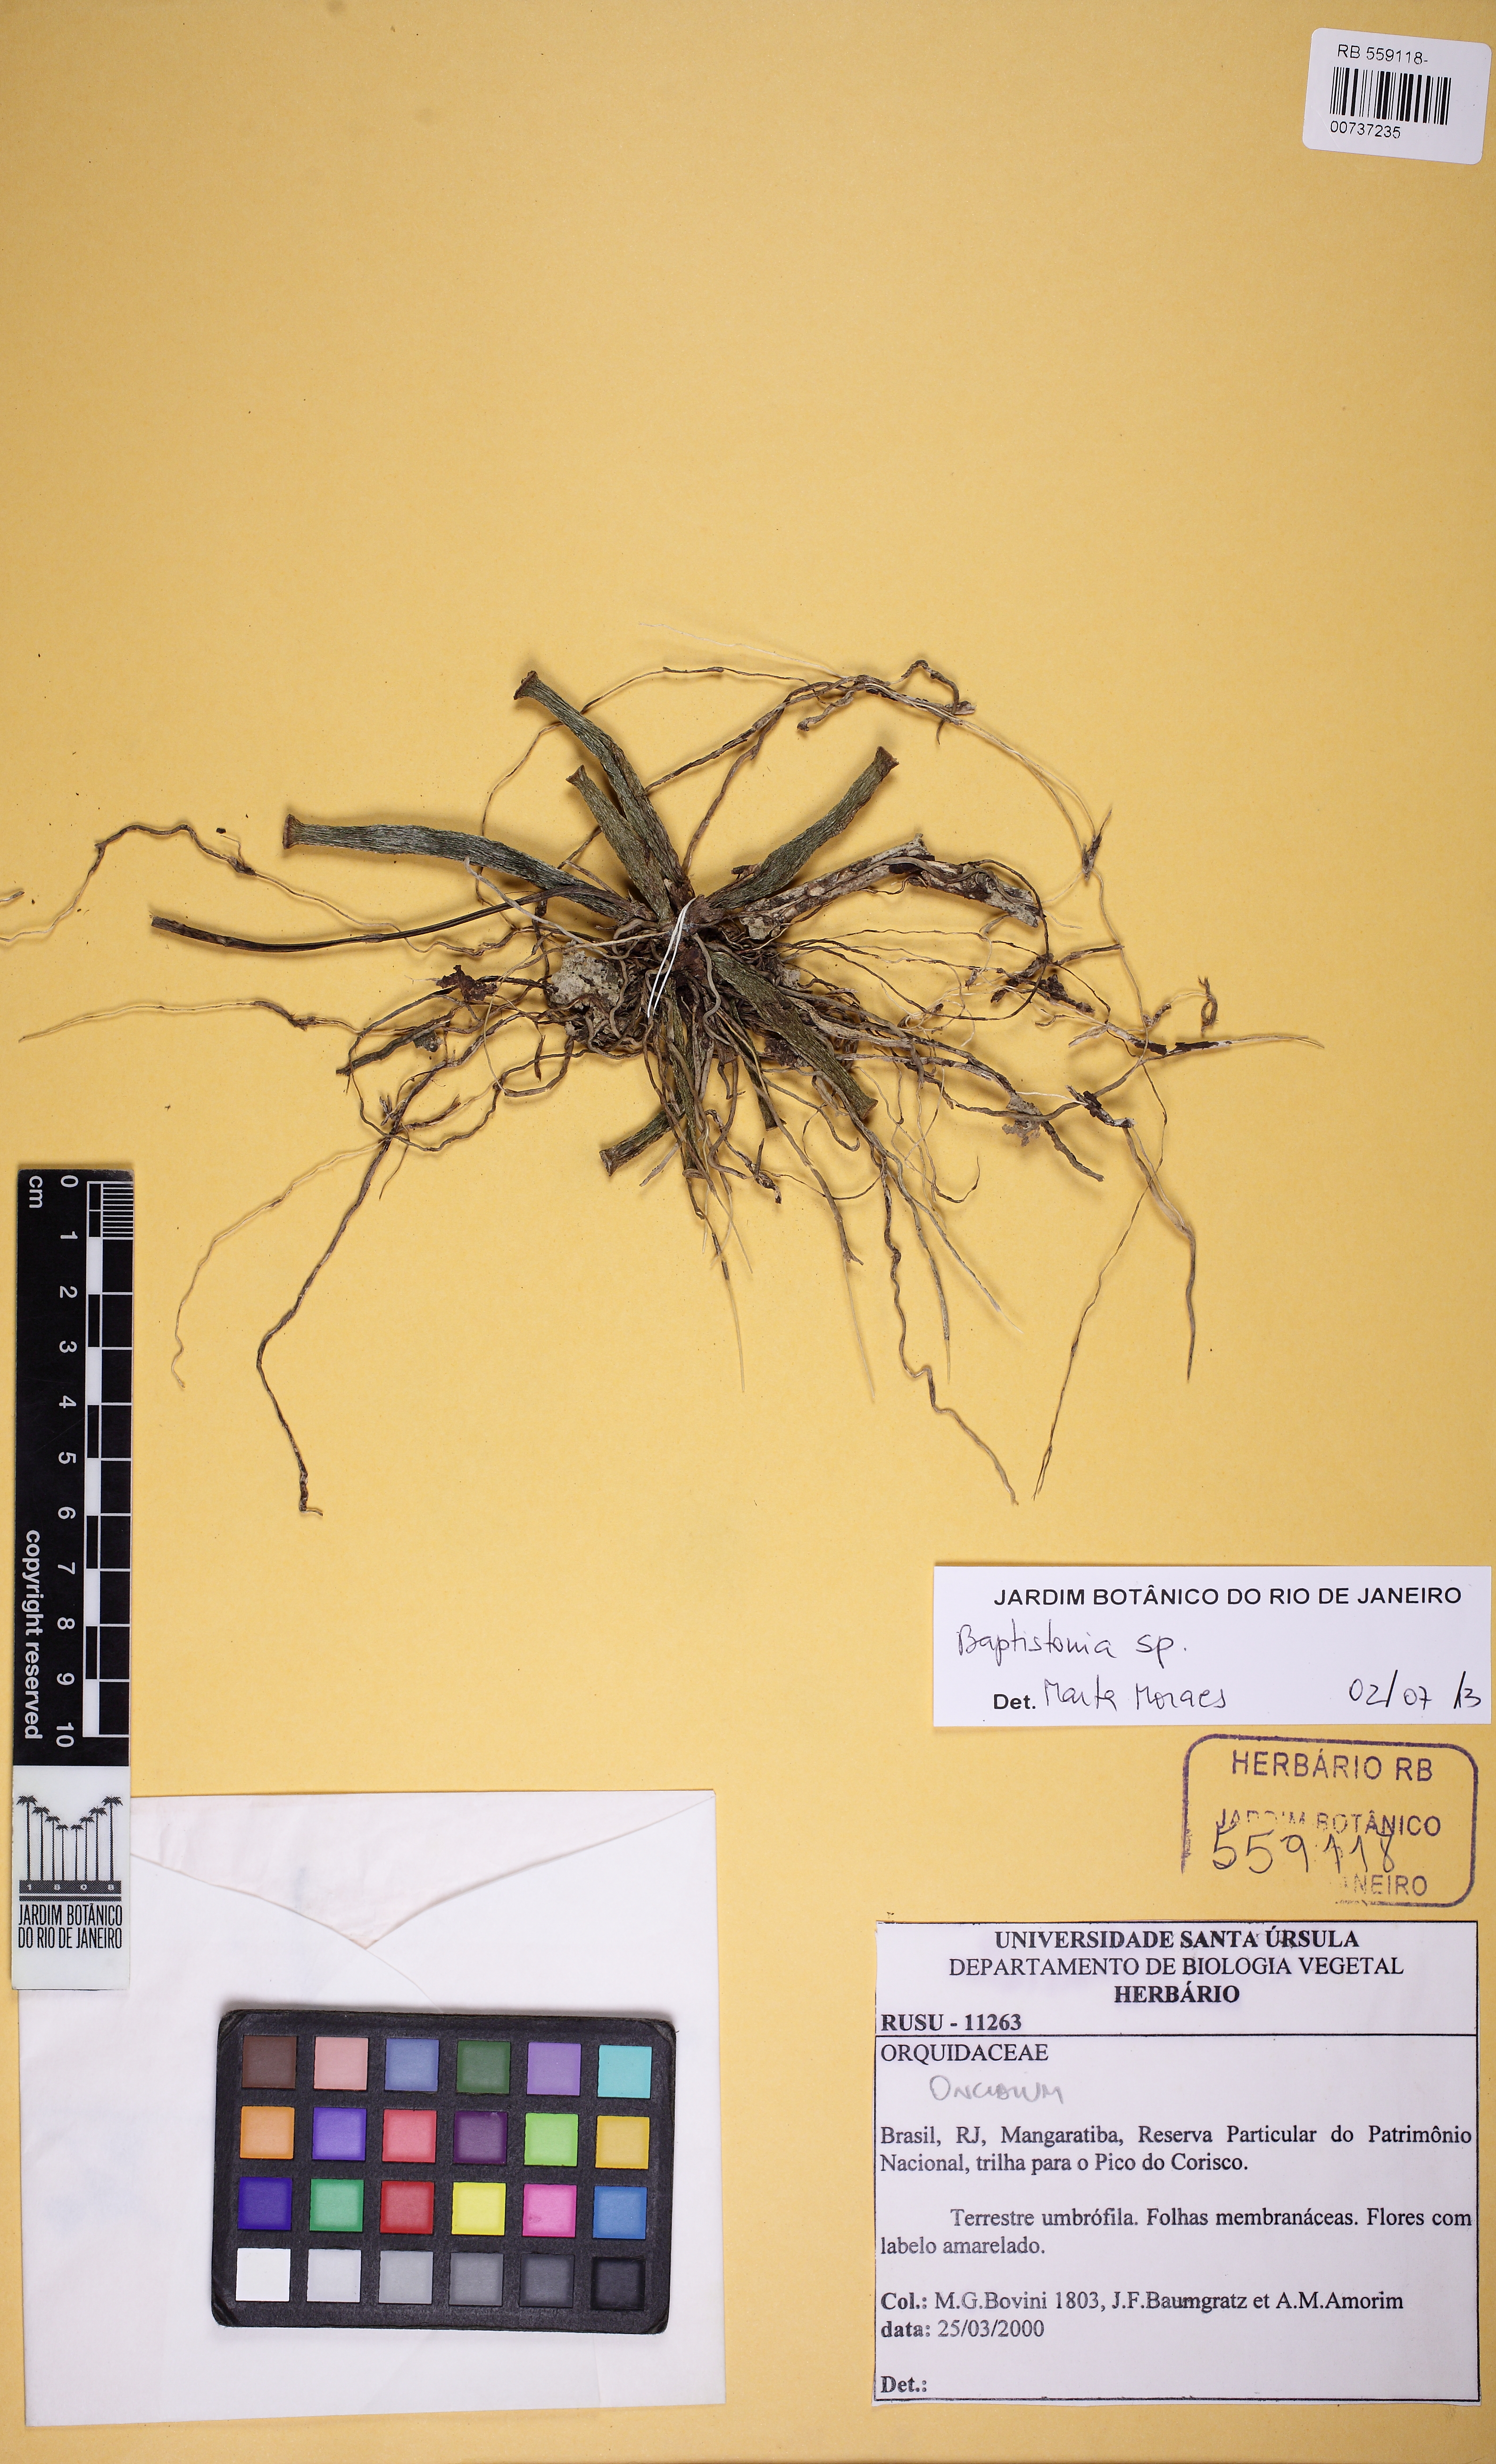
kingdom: Plantae
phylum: Tracheophyta
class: Liliopsida
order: Asparagales
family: Orchidaceae
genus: Gomesa
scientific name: Gomesa bicornuta
